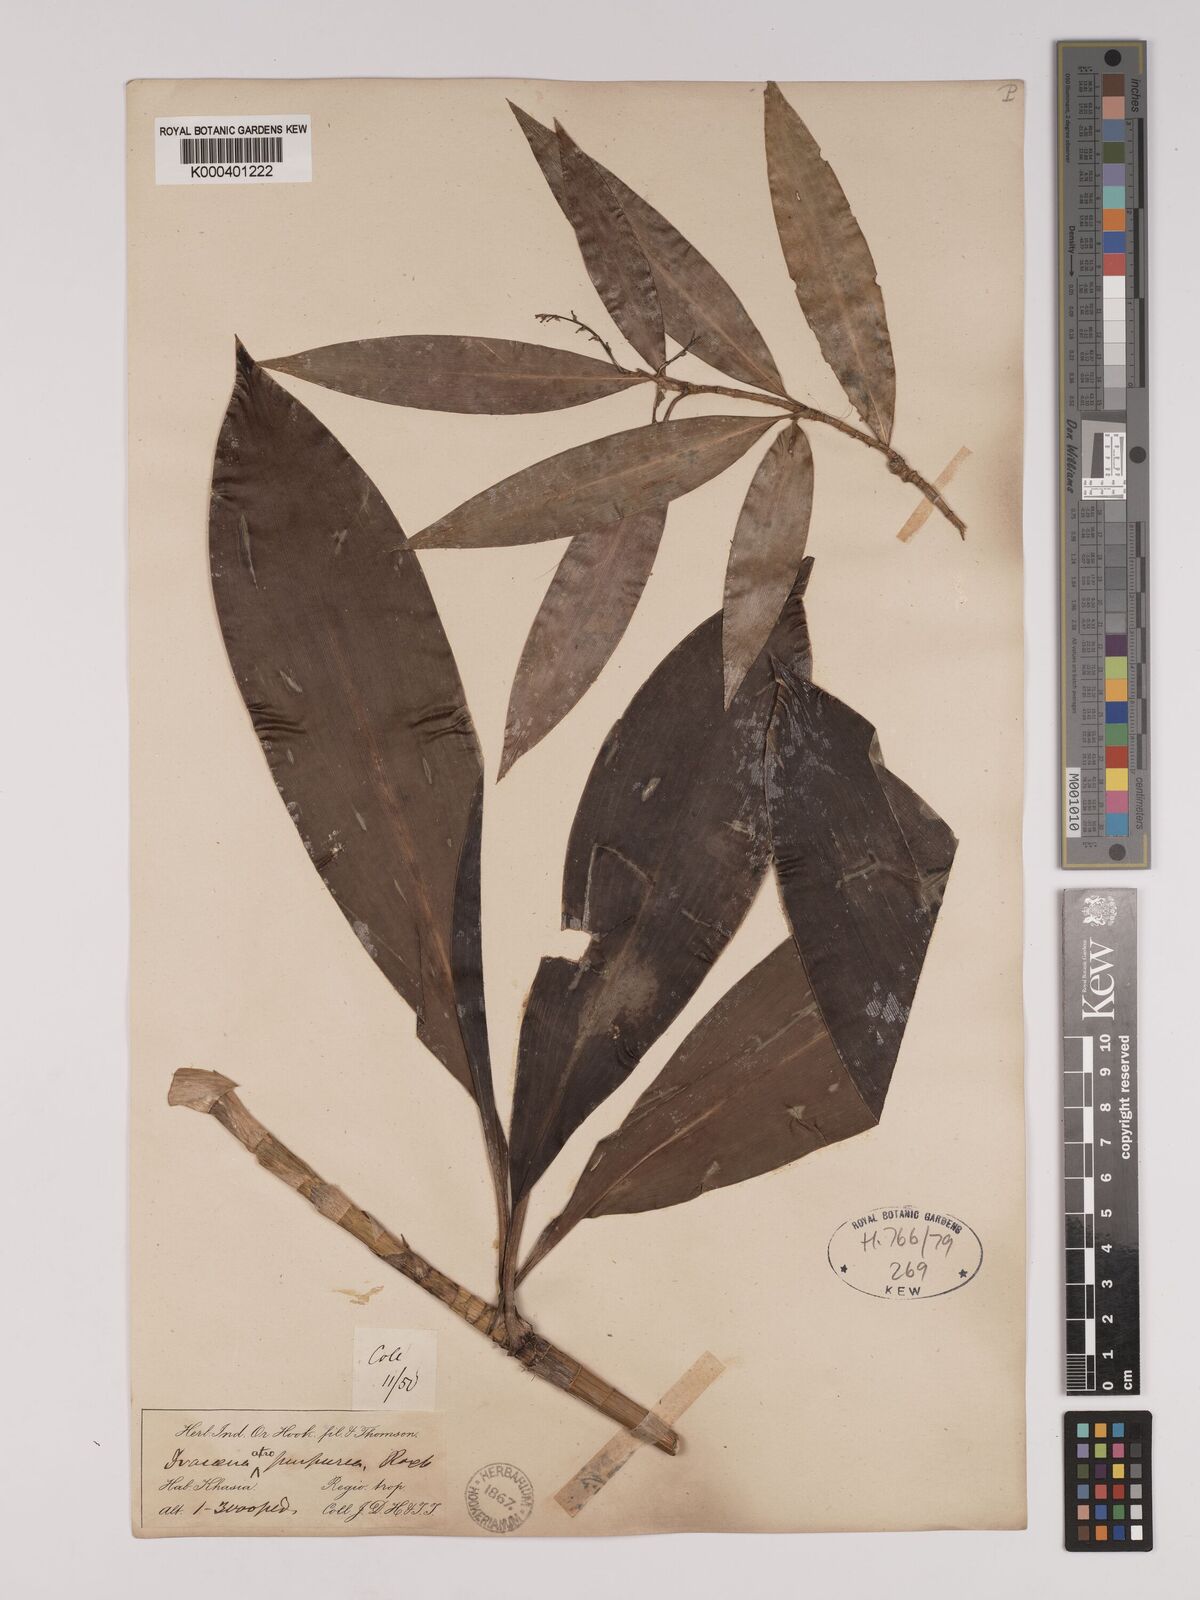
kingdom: Plantae
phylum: Tracheophyta
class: Liliopsida
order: Asparagales
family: Asparagaceae
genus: Dracaena
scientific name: Dracaena elliptica
